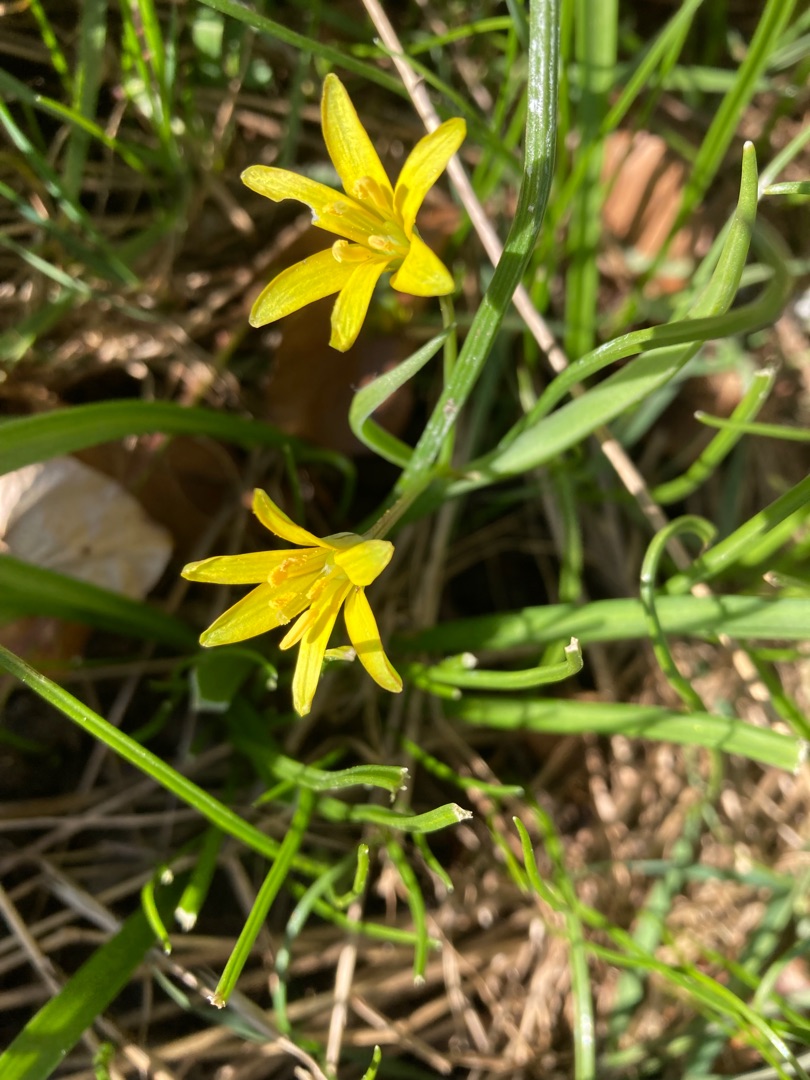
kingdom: Plantae
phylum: Tracheophyta
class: Liliopsida
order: Liliales
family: Liliaceae
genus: Gagea
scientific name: Gagea lutea
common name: Almindelig guldstjerne
